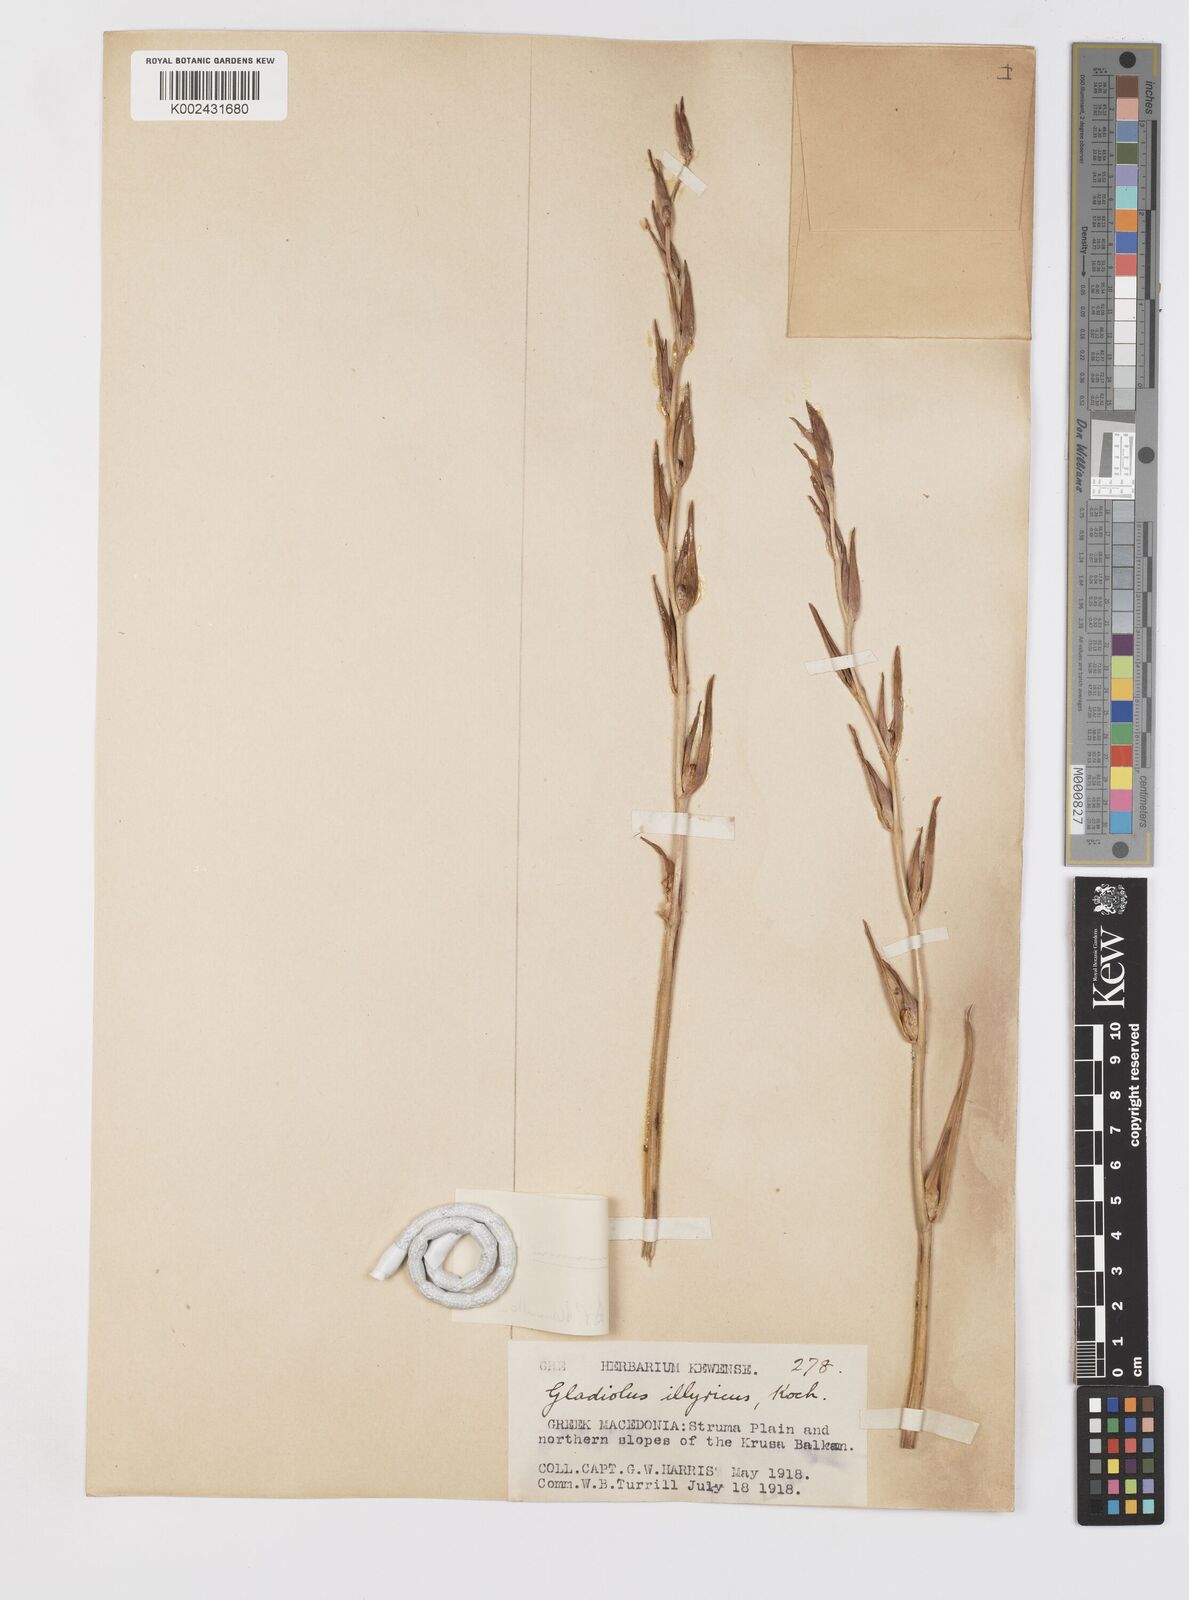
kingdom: Plantae
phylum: Tracheophyta
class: Liliopsida
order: Asparagales
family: Iridaceae
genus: Gladiolus
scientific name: Gladiolus illyricus
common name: Wild gladiolus
